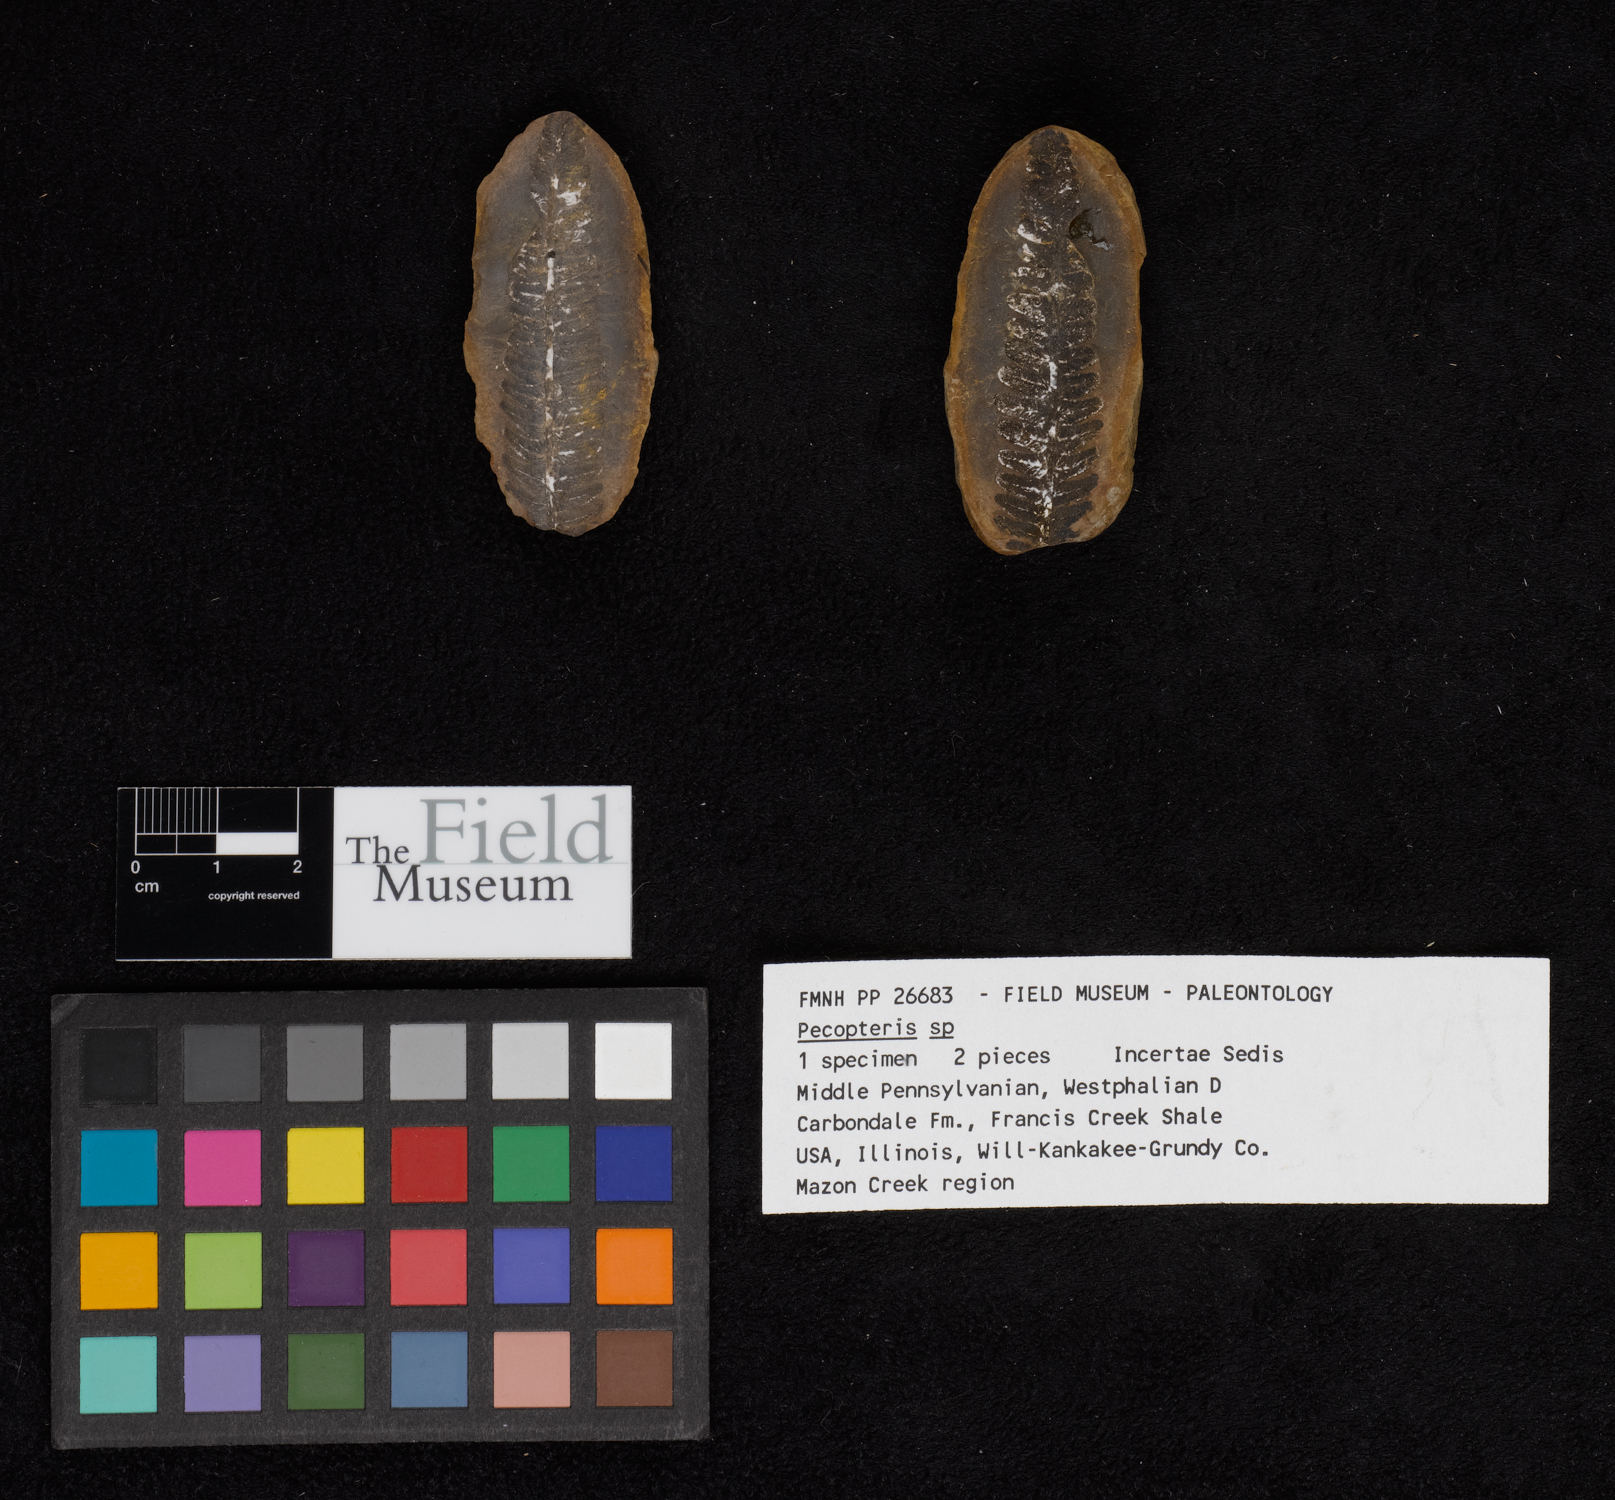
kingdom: Plantae
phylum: Tracheophyta
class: Polypodiopsida
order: Marattiales
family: Asterothecaceae
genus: Pecopteris
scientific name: Pecopteris
